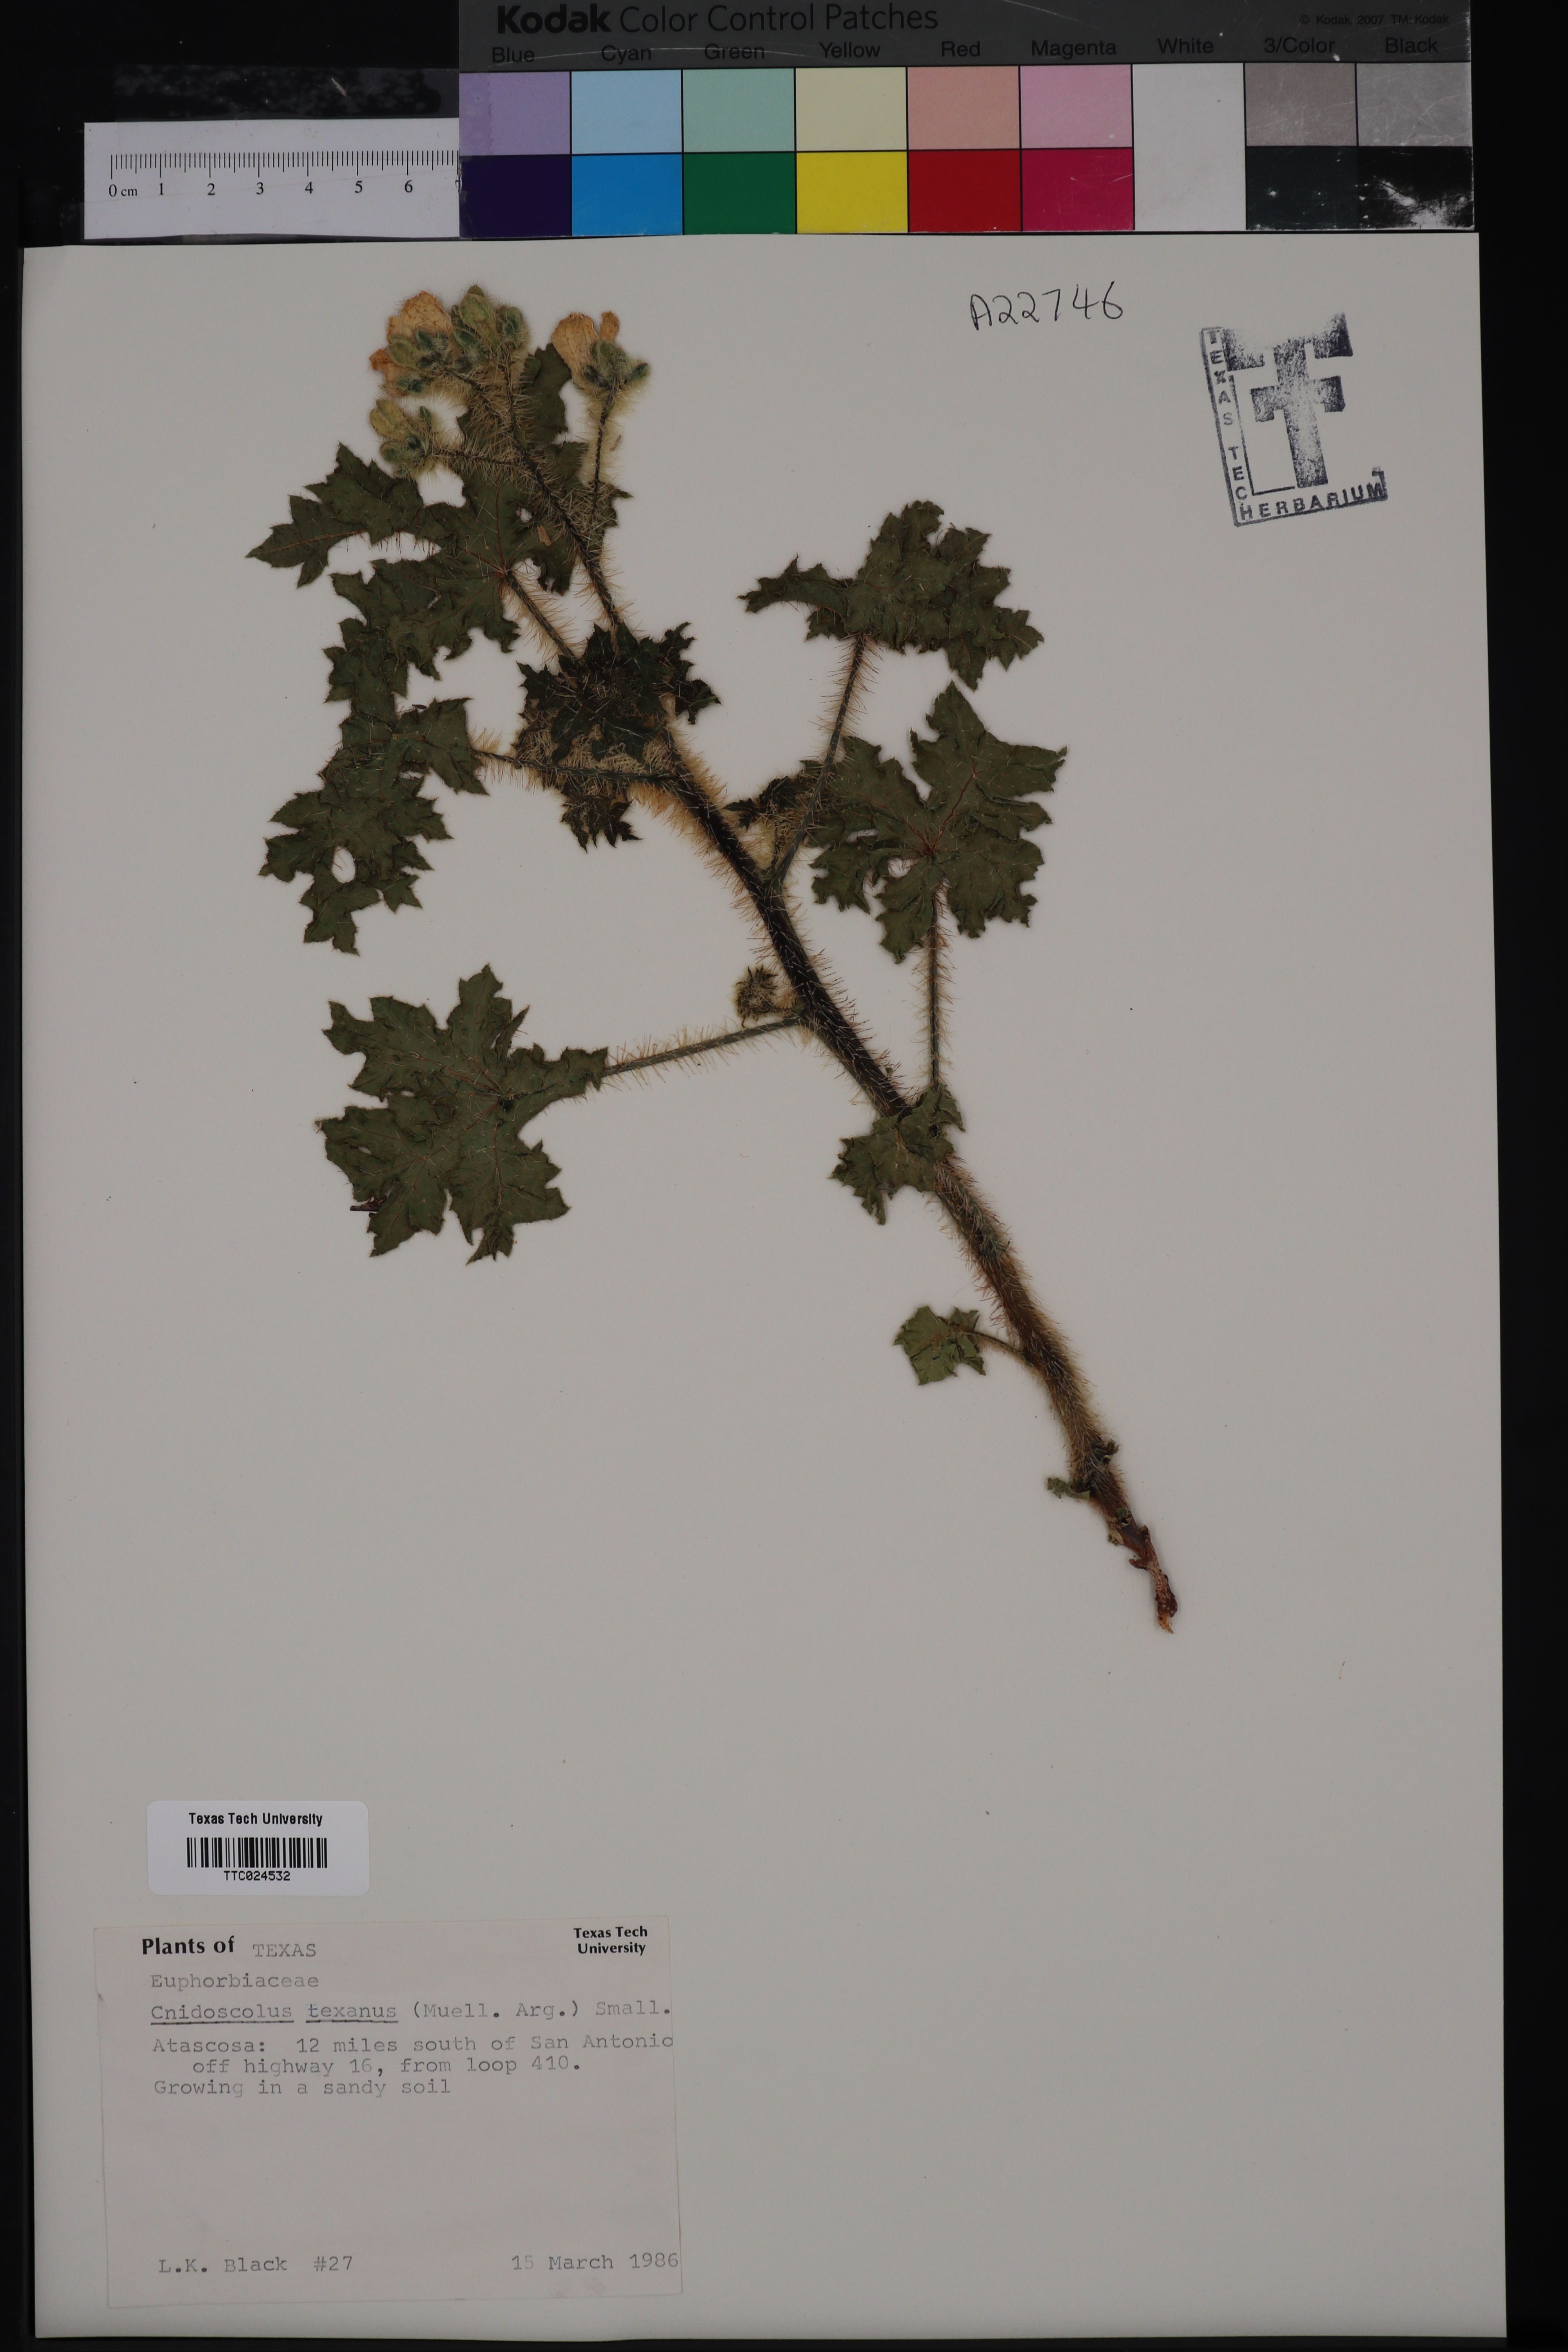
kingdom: Plantae
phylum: Tracheophyta
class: Magnoliopsida
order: Malpighiales
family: Euphorbiaceae
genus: Cnidoscolus
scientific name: Cnidoscolus texanus
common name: Texas bull-nettle
